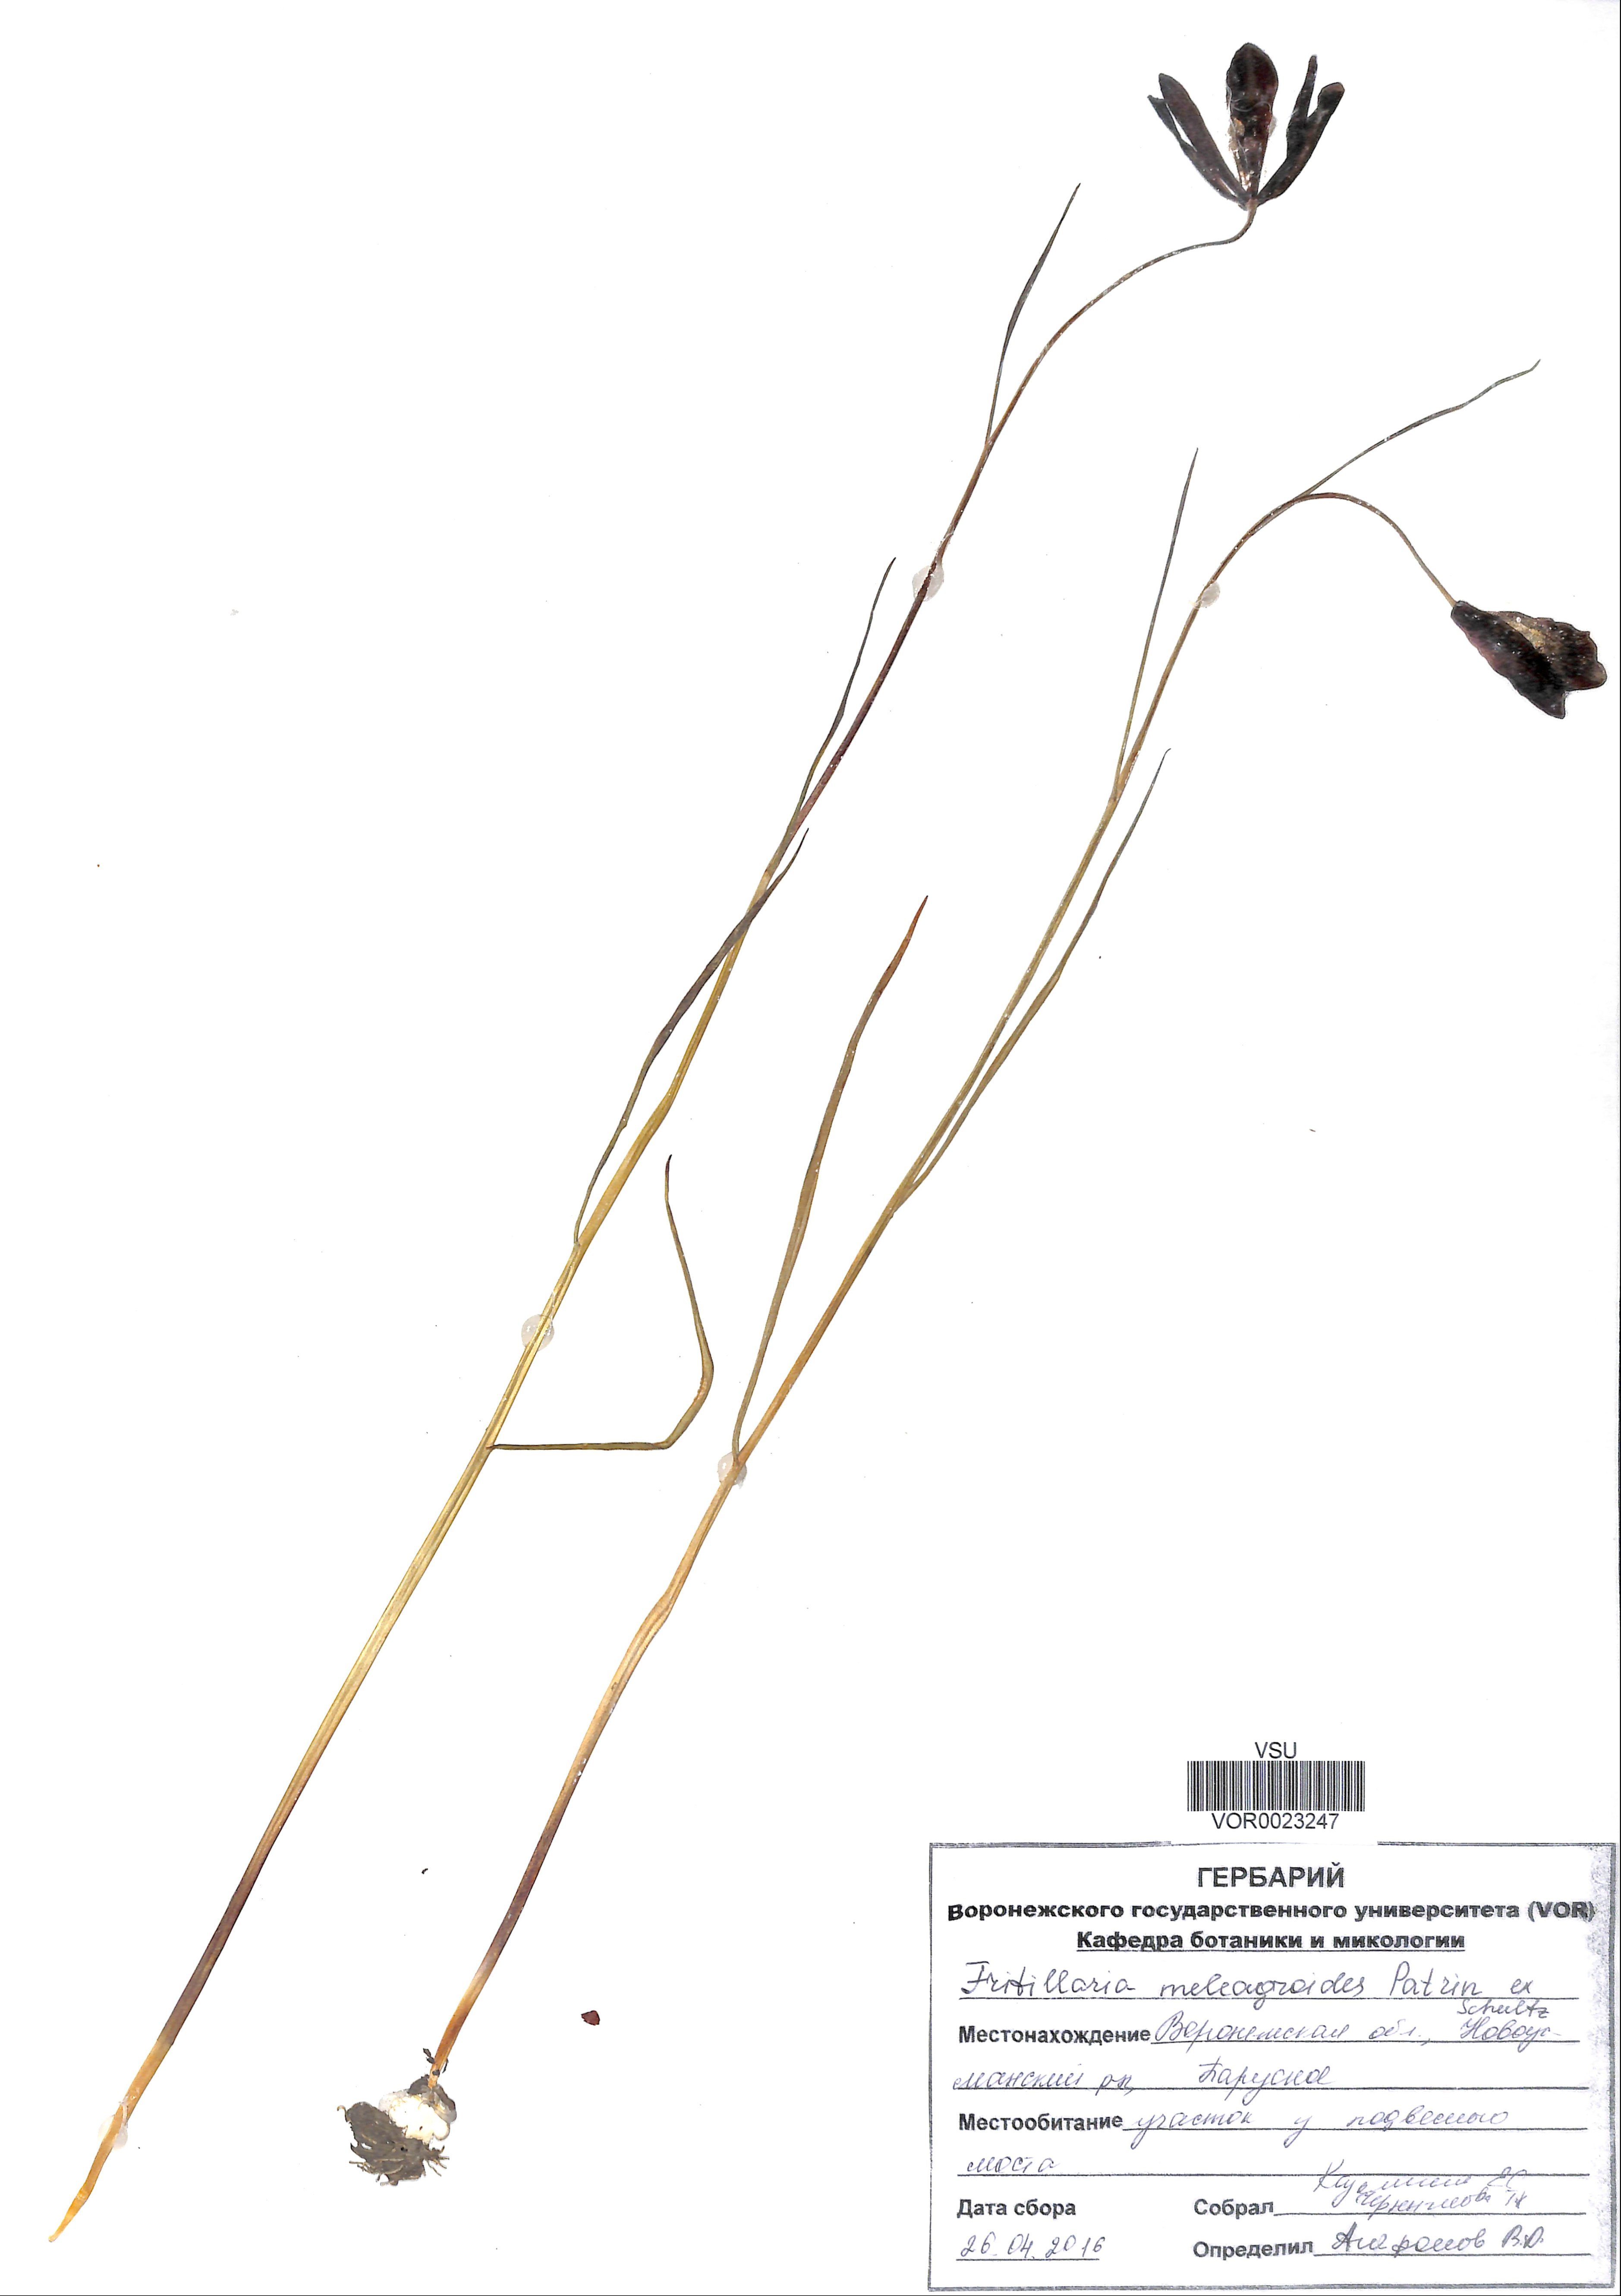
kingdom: Plantae
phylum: Tracheophyta
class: Liliopsida
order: Liliales
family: Liliaceae
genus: Fritillaria
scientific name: Fritillaria meleagroides
